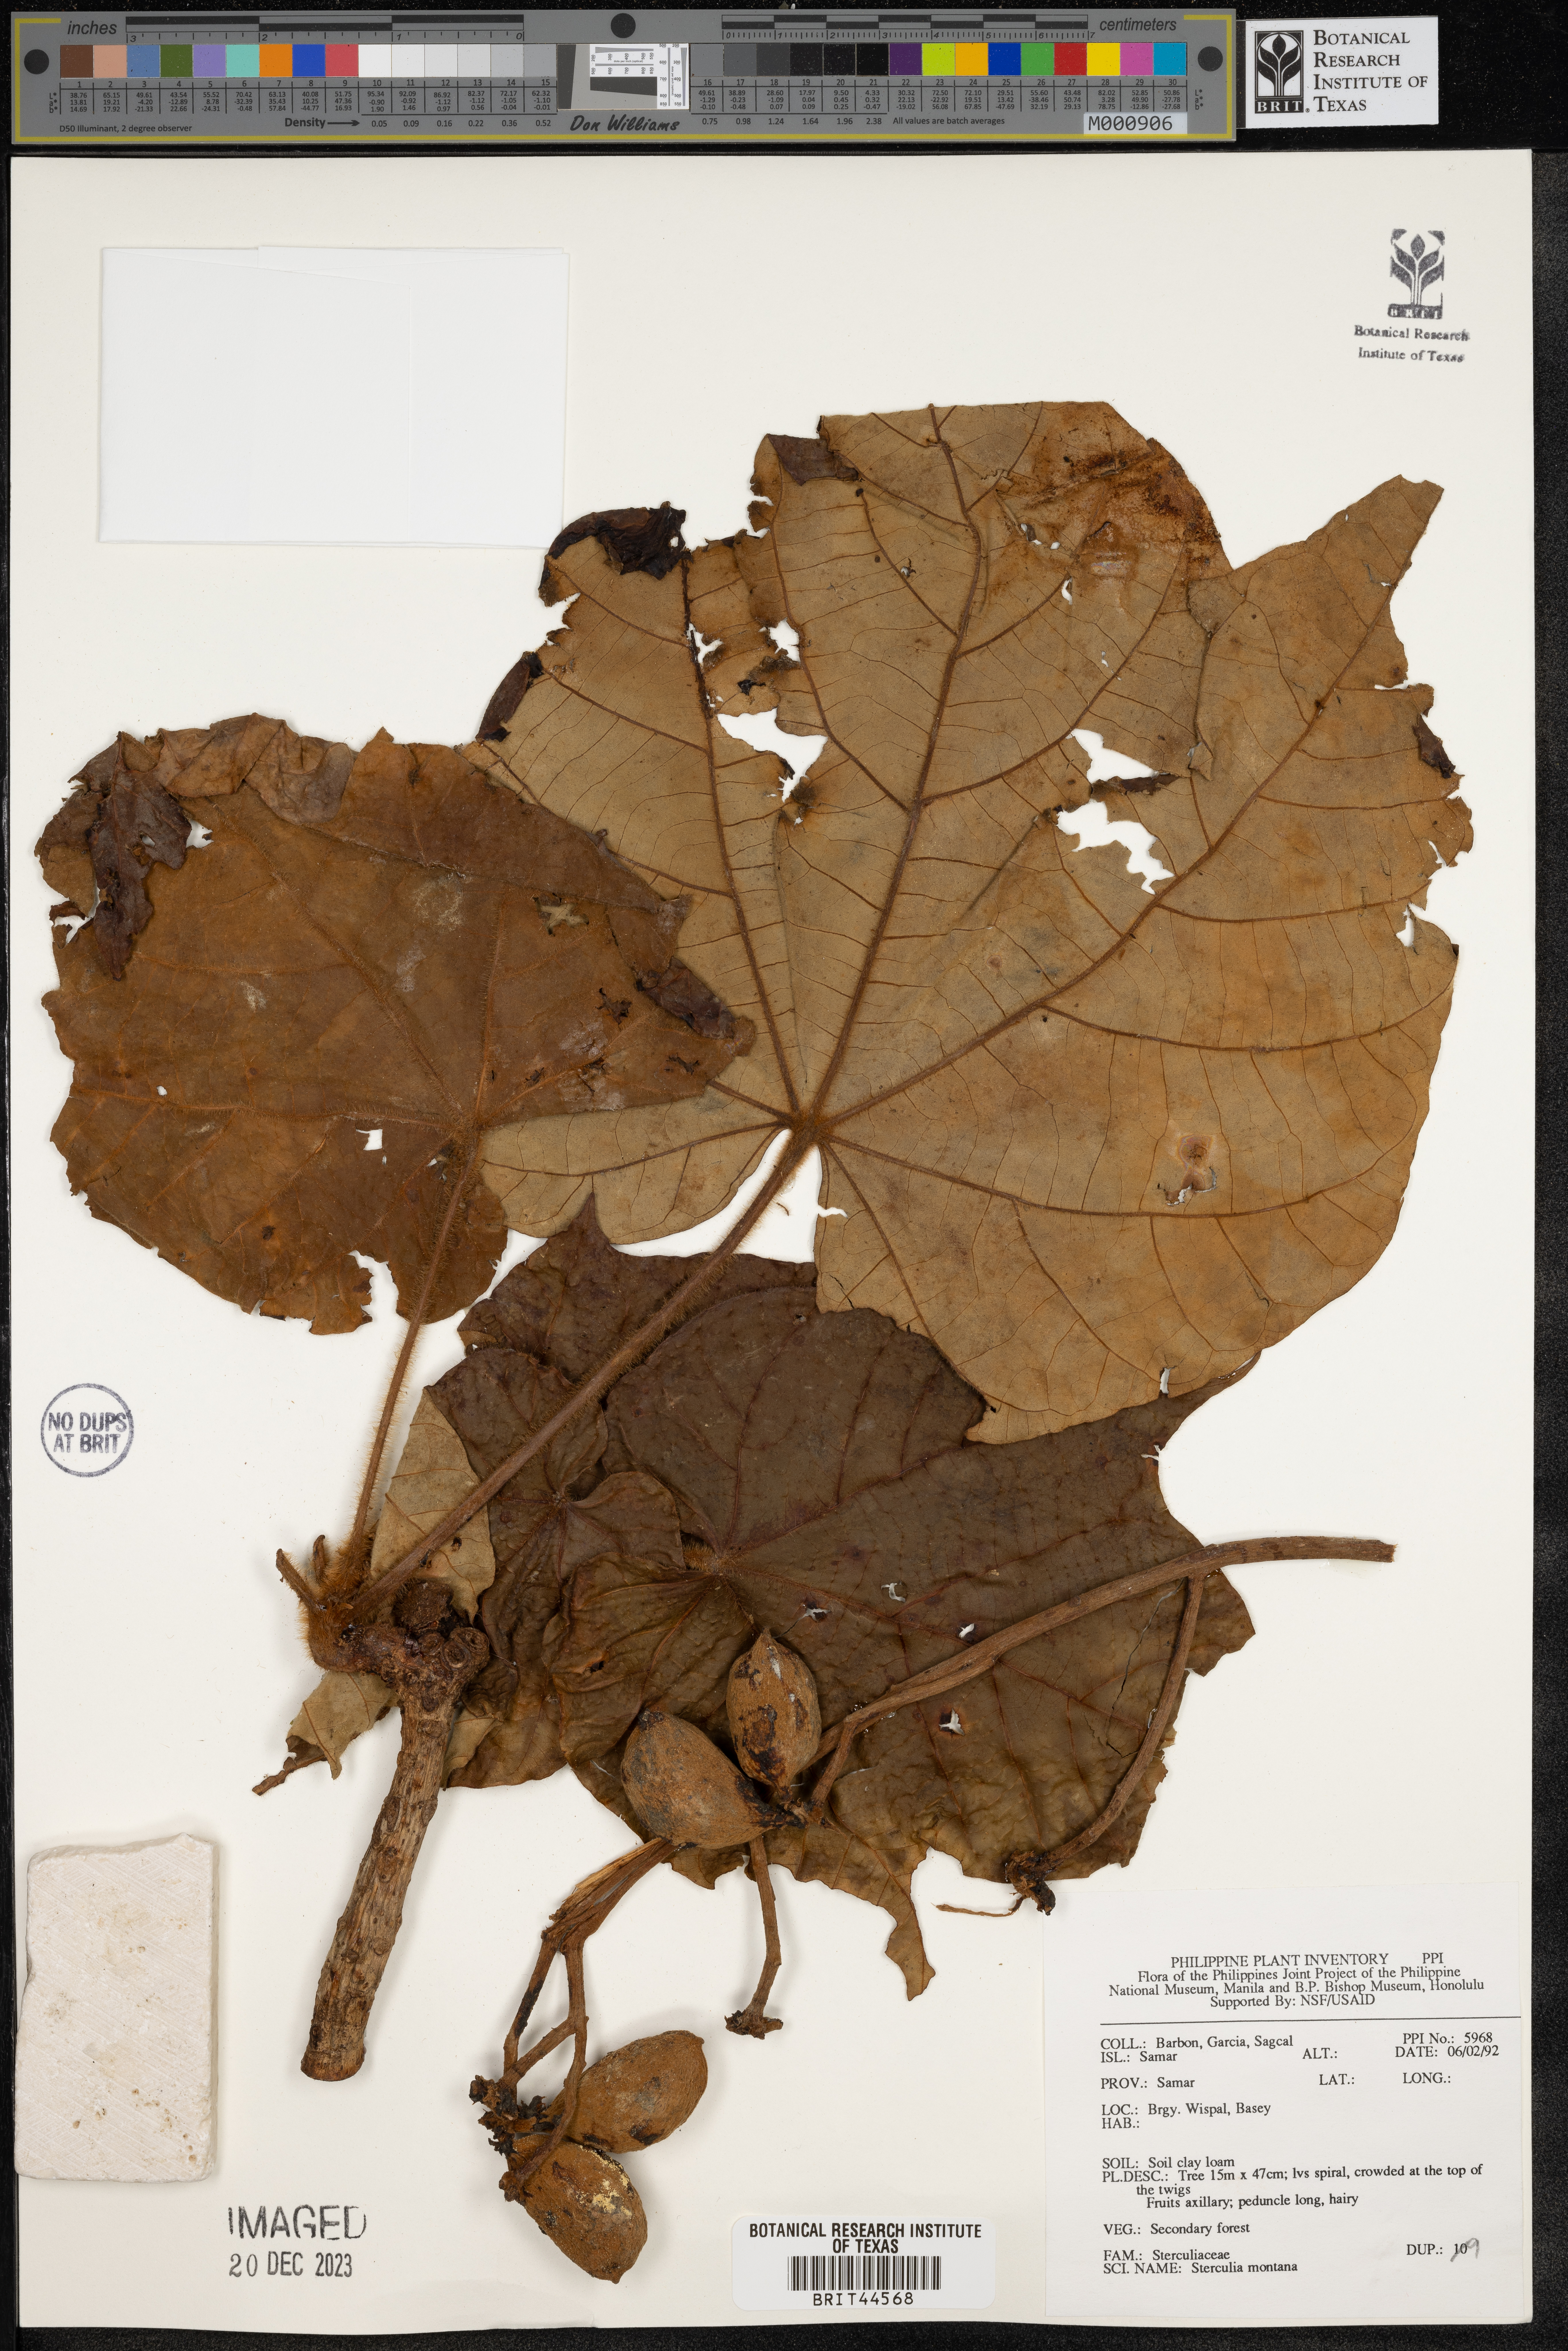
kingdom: Plantae
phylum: Tracheophyta
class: Magnoliopsida
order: Malvales
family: Malvaceae
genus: Sterculia
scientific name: Sterculia cordata
